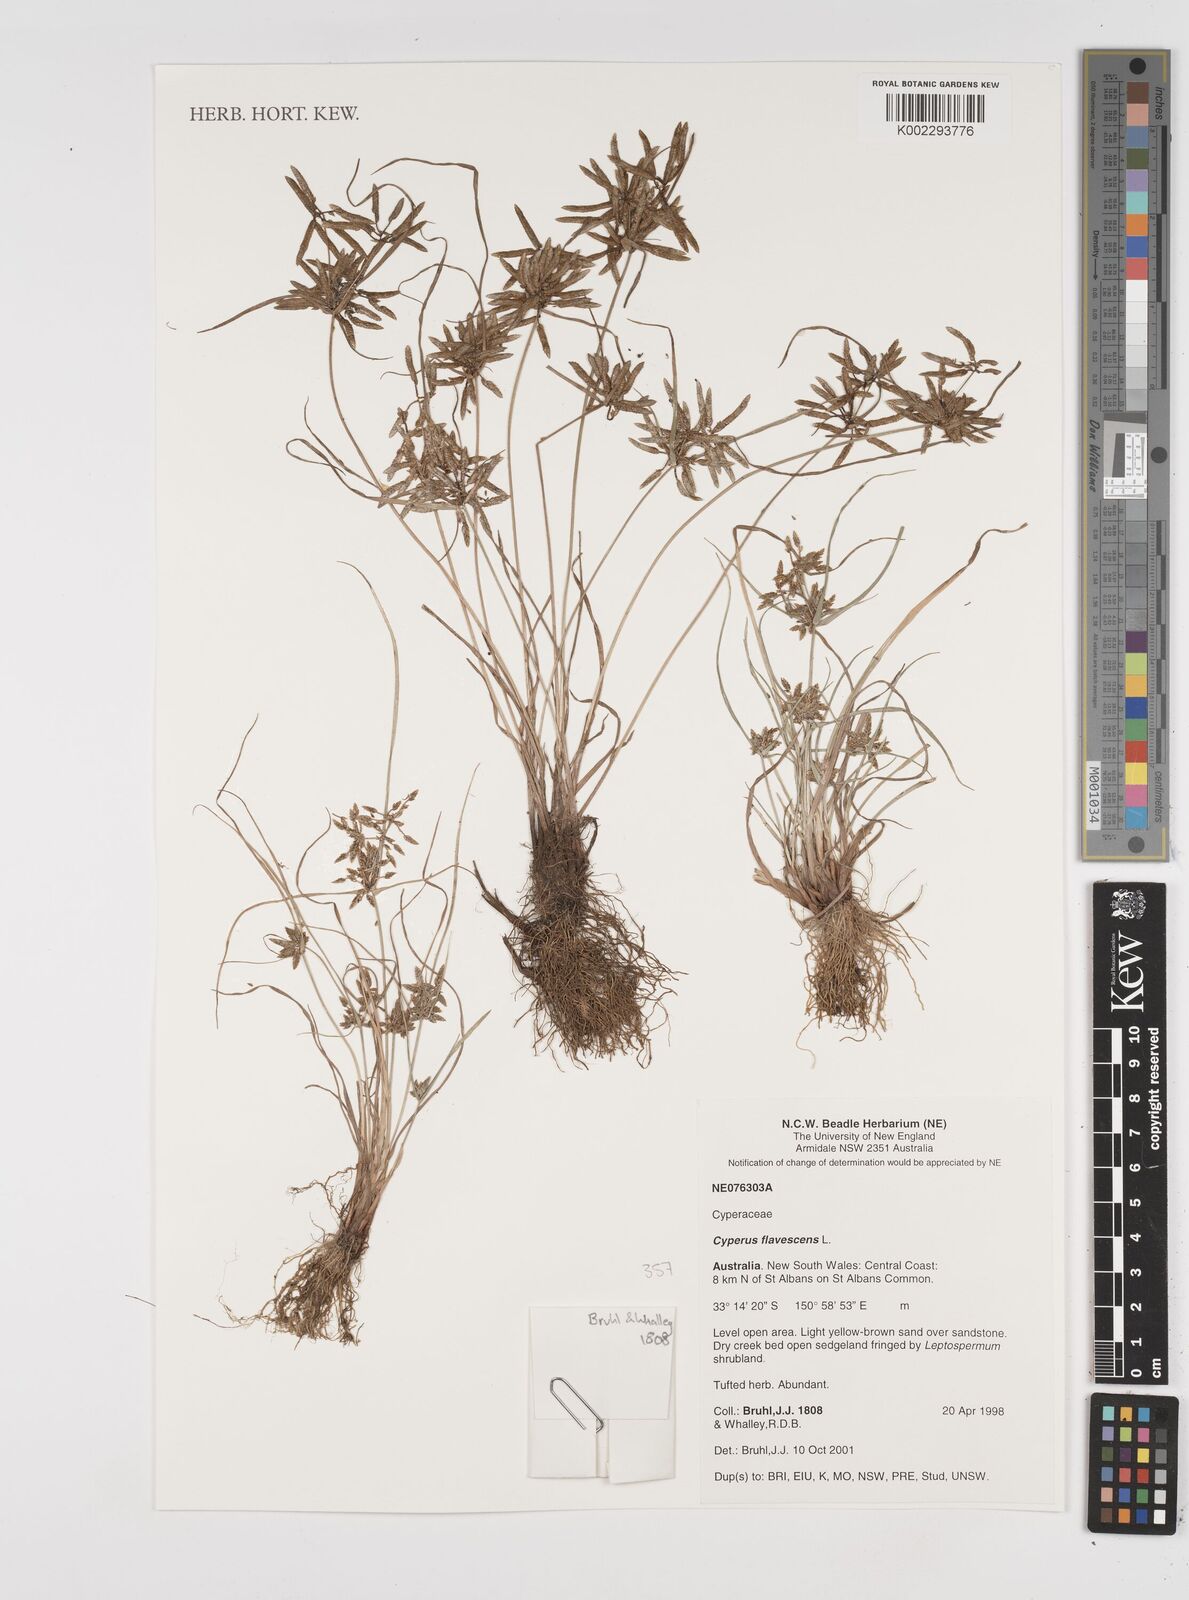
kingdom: Plantae
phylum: Tracheophyta
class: Liliopsida
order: Poales
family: Cyperaceae
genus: Cyperus
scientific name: Cyperus flavescens
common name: Yellow galingale
